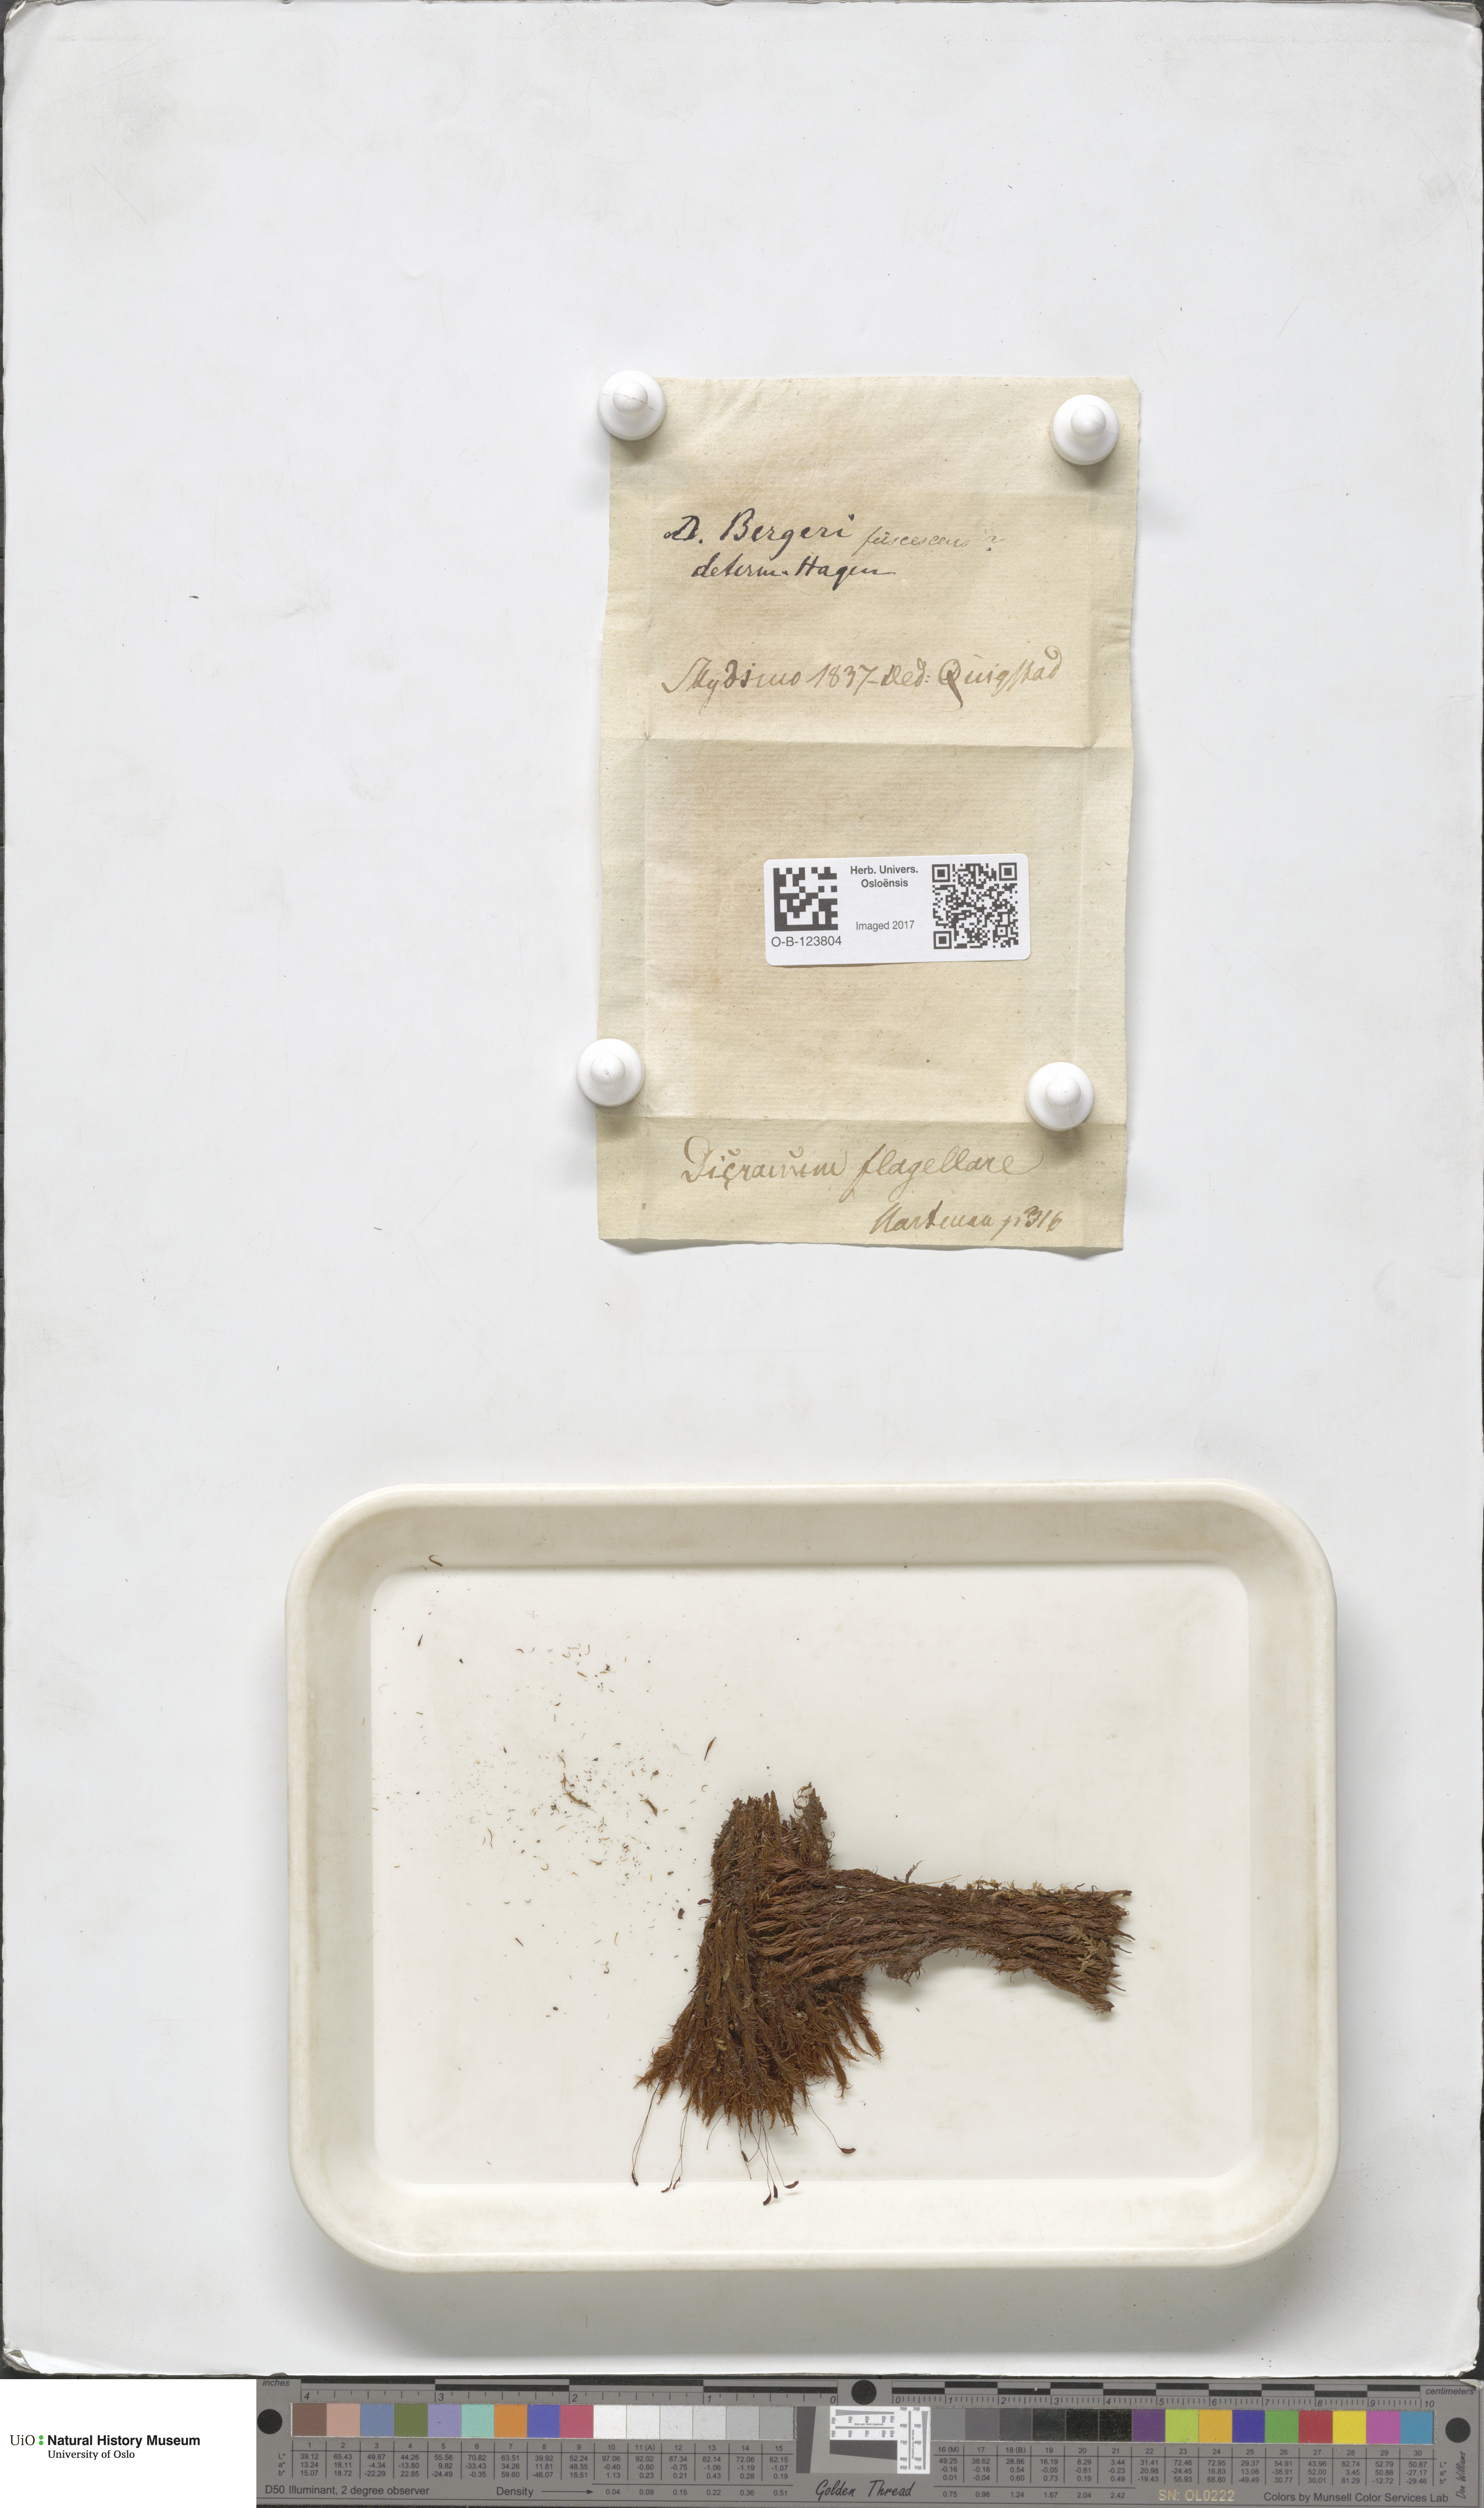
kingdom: Plantae
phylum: Bryophyta
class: Bryopsida
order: Dicranales
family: Dicranaceae
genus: Dicranum
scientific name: Dicranum undulatum
